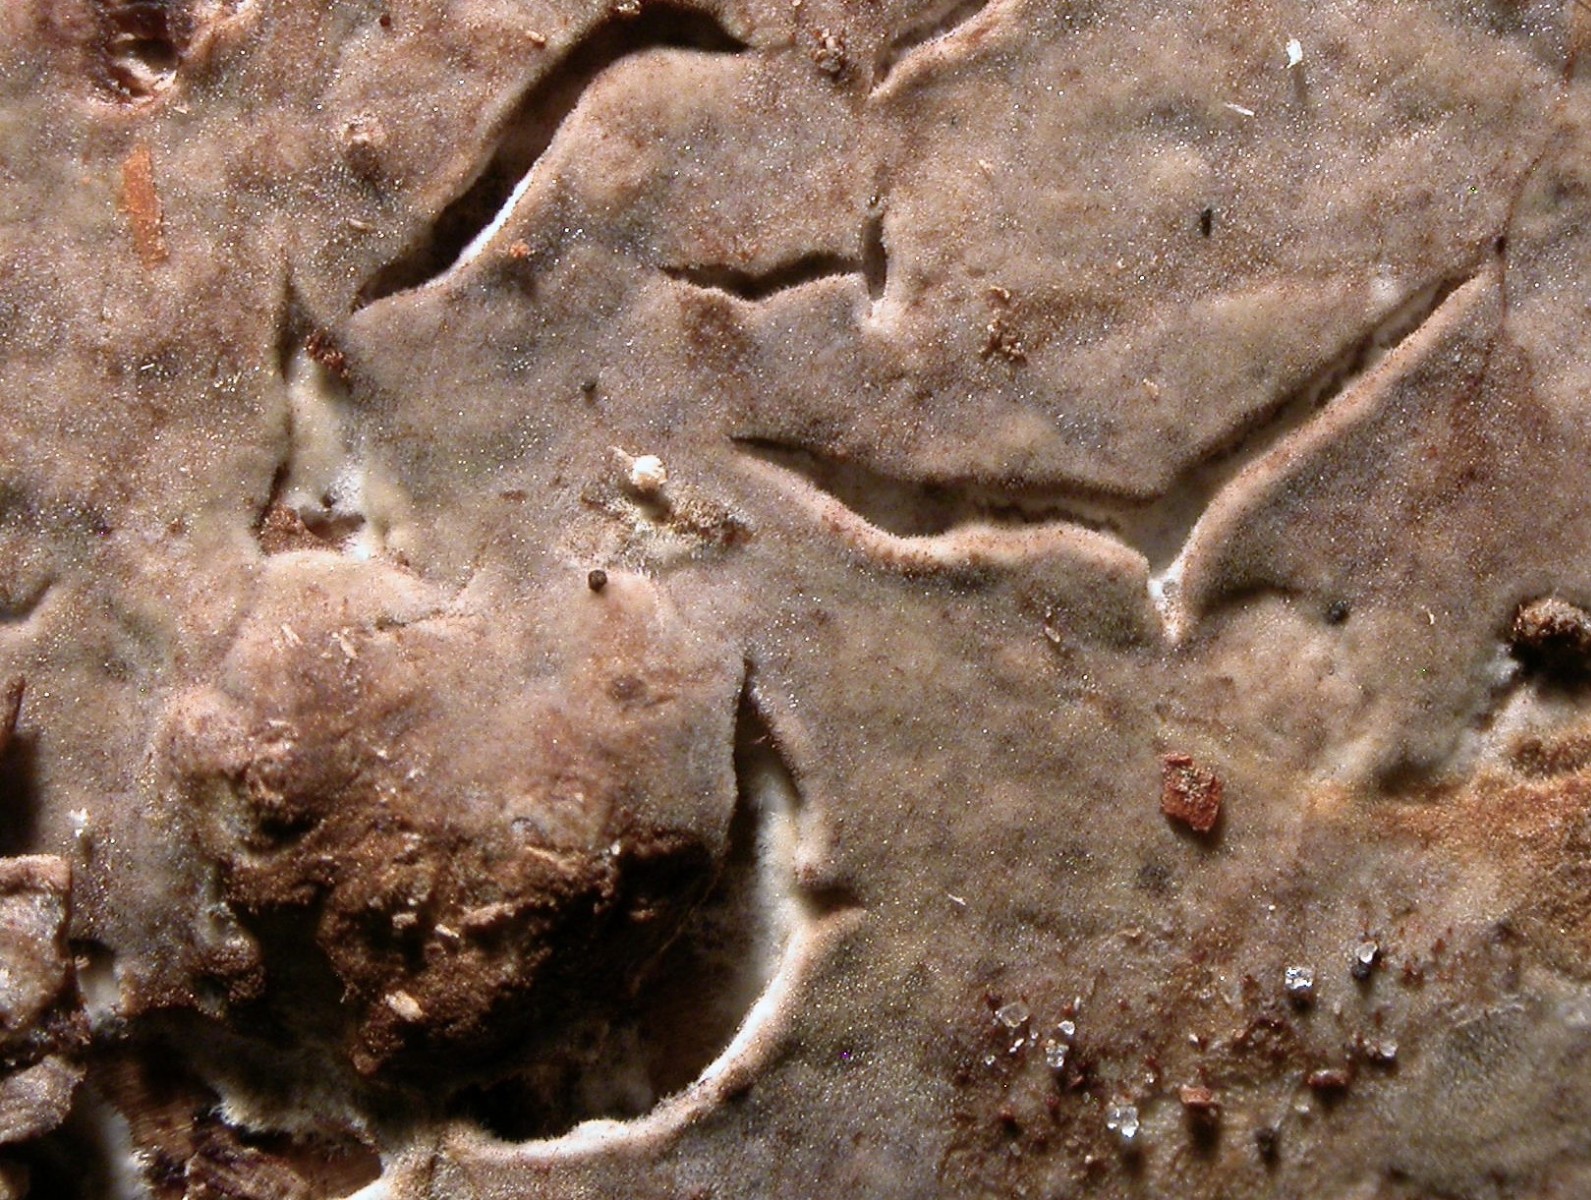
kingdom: Fungi
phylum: Basidiomycota
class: Agaricomycetes
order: Boletales
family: Coniophoraceae
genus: Coniophora
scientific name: Coniophora puteana
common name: gul tømmersvamp
